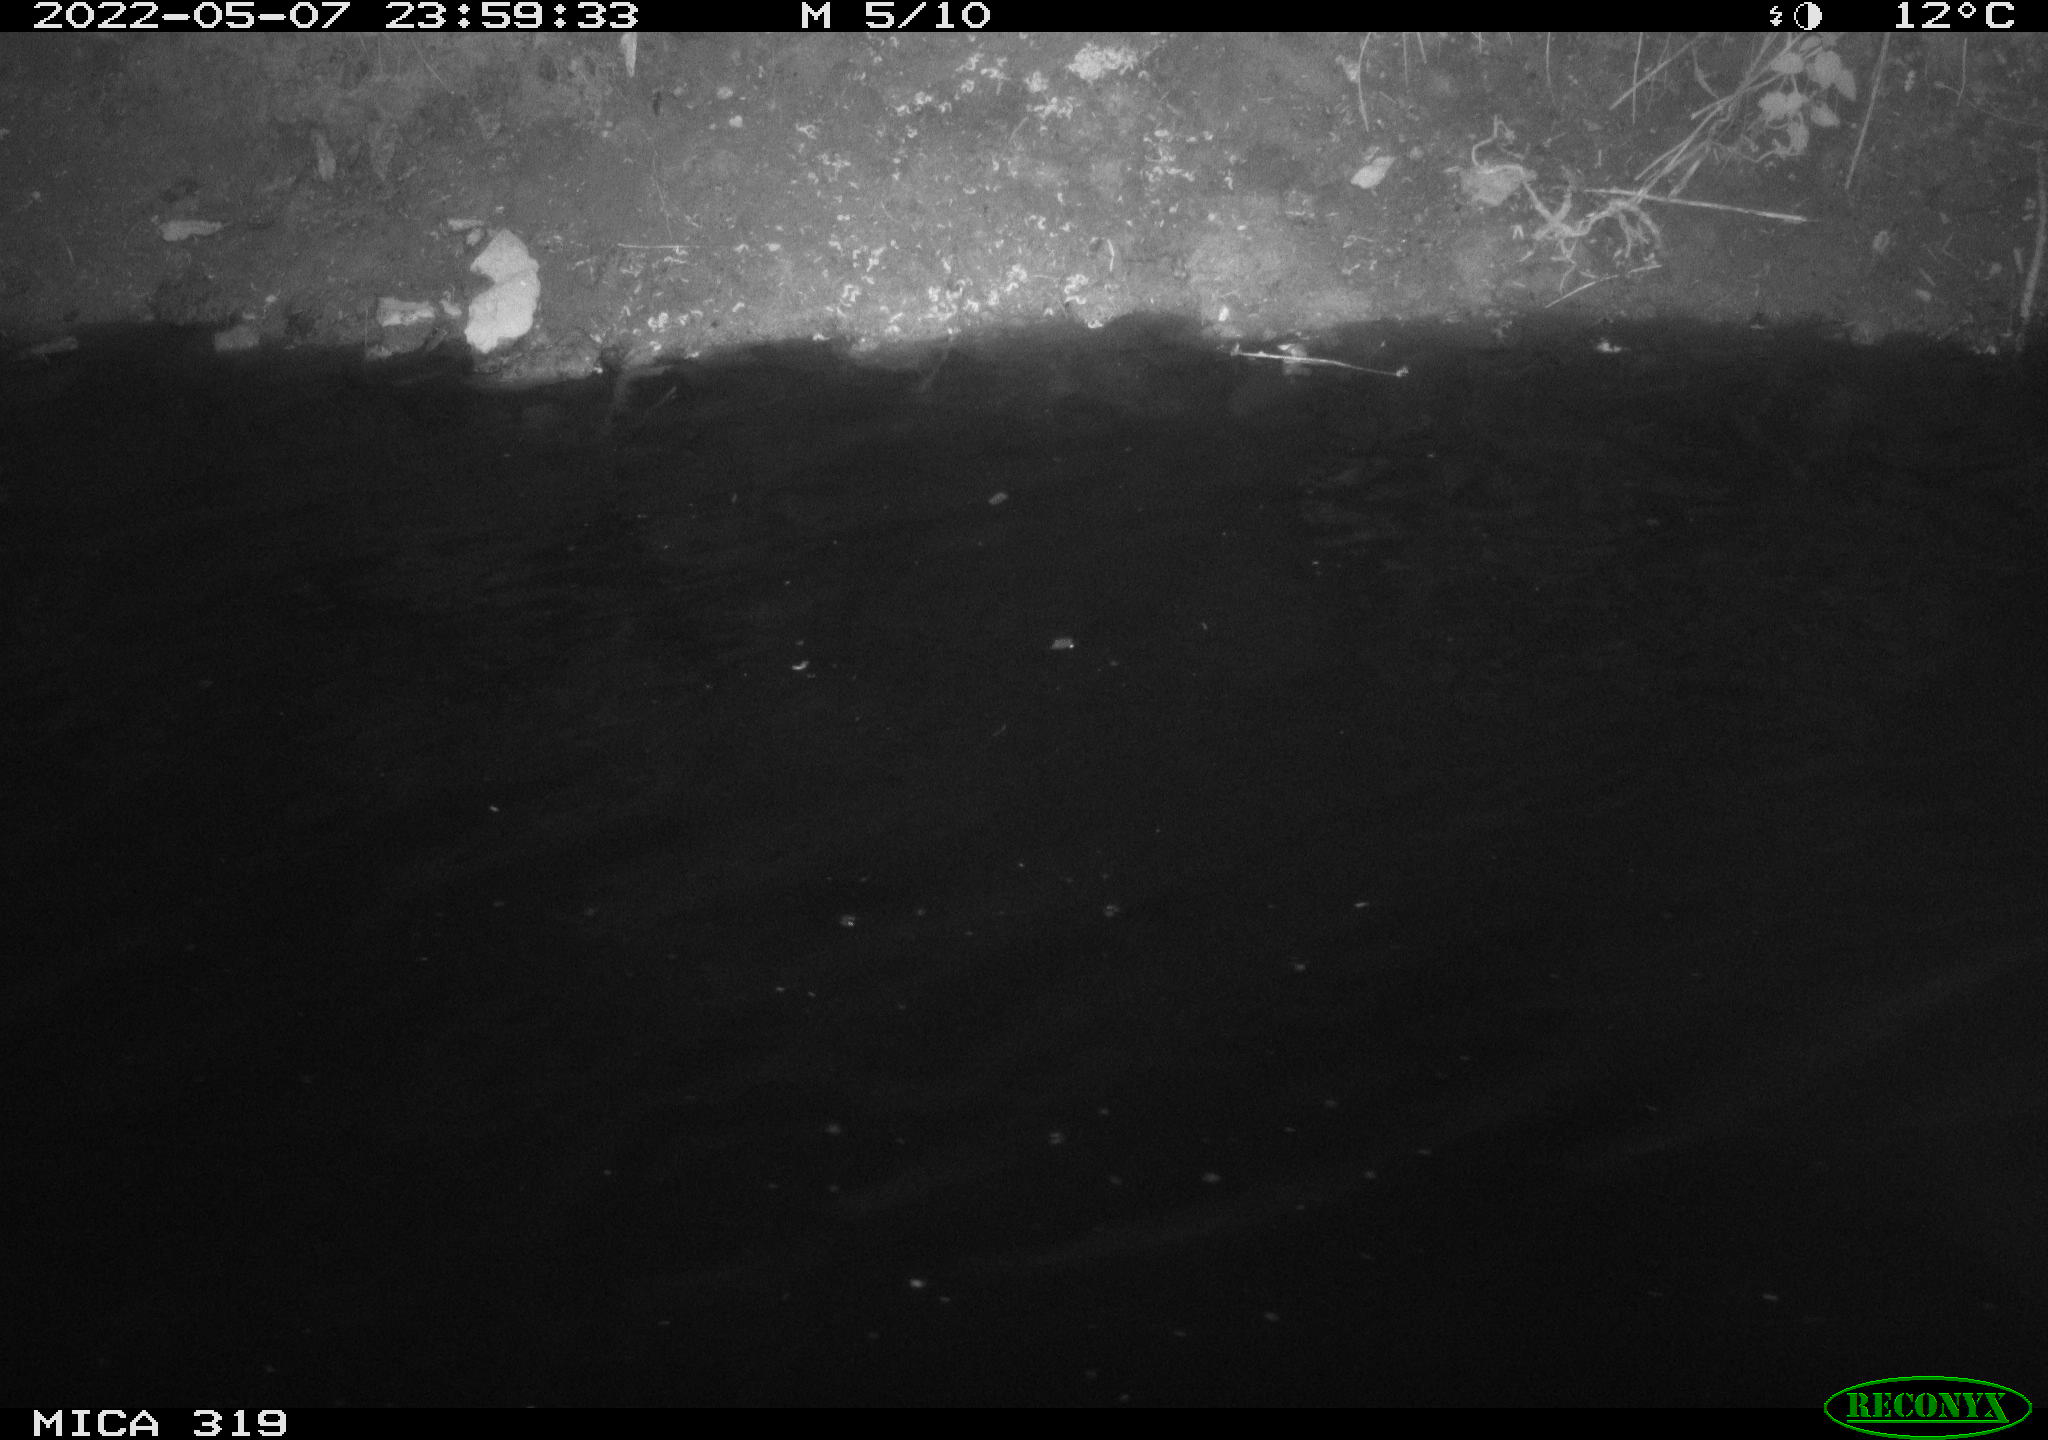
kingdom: Animalia
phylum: Chordata
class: Aves
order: Anseriformes
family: Anatidae
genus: Anas
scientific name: Anas platyrhynchos
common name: Mallard
